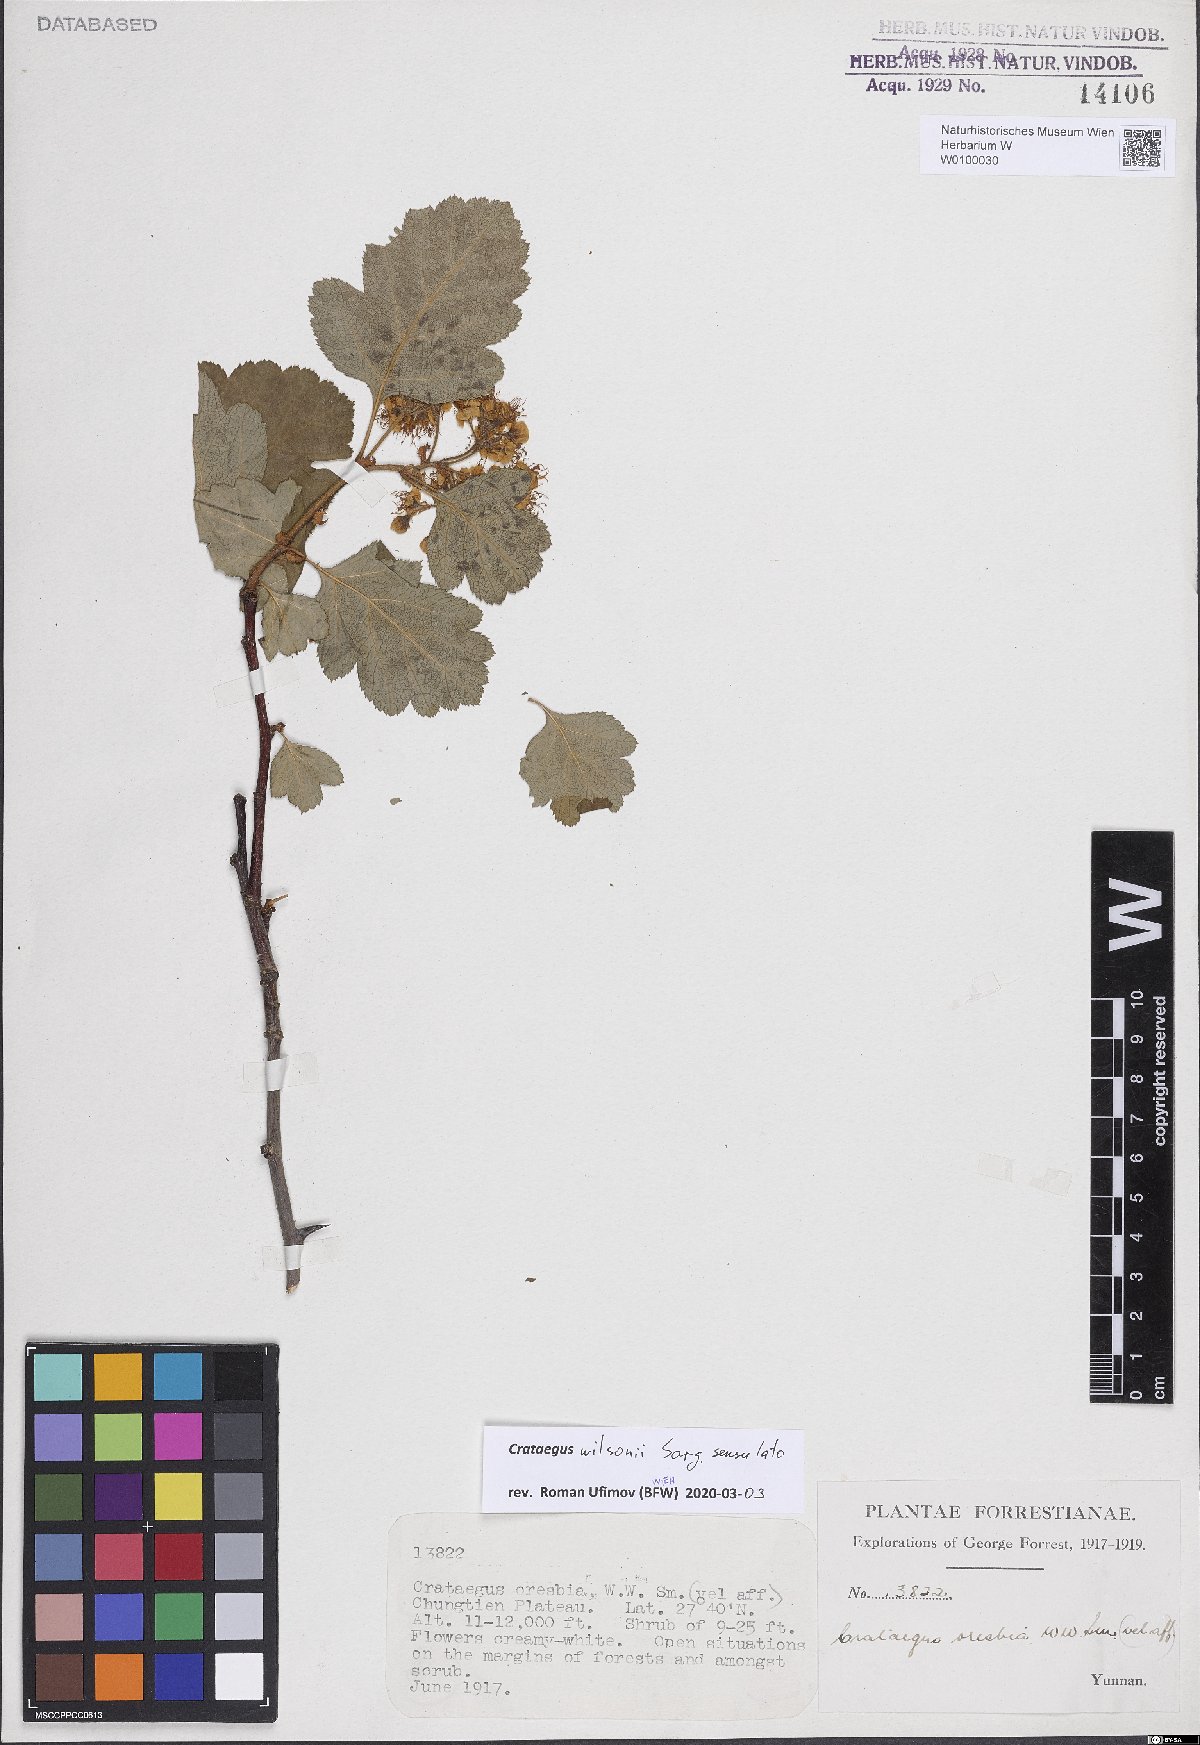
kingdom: Plantae
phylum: Tracheophyta
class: Magnoliopsida
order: Rosales
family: Rosaceae
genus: Crataegus
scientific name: Crataegus wilsonii
